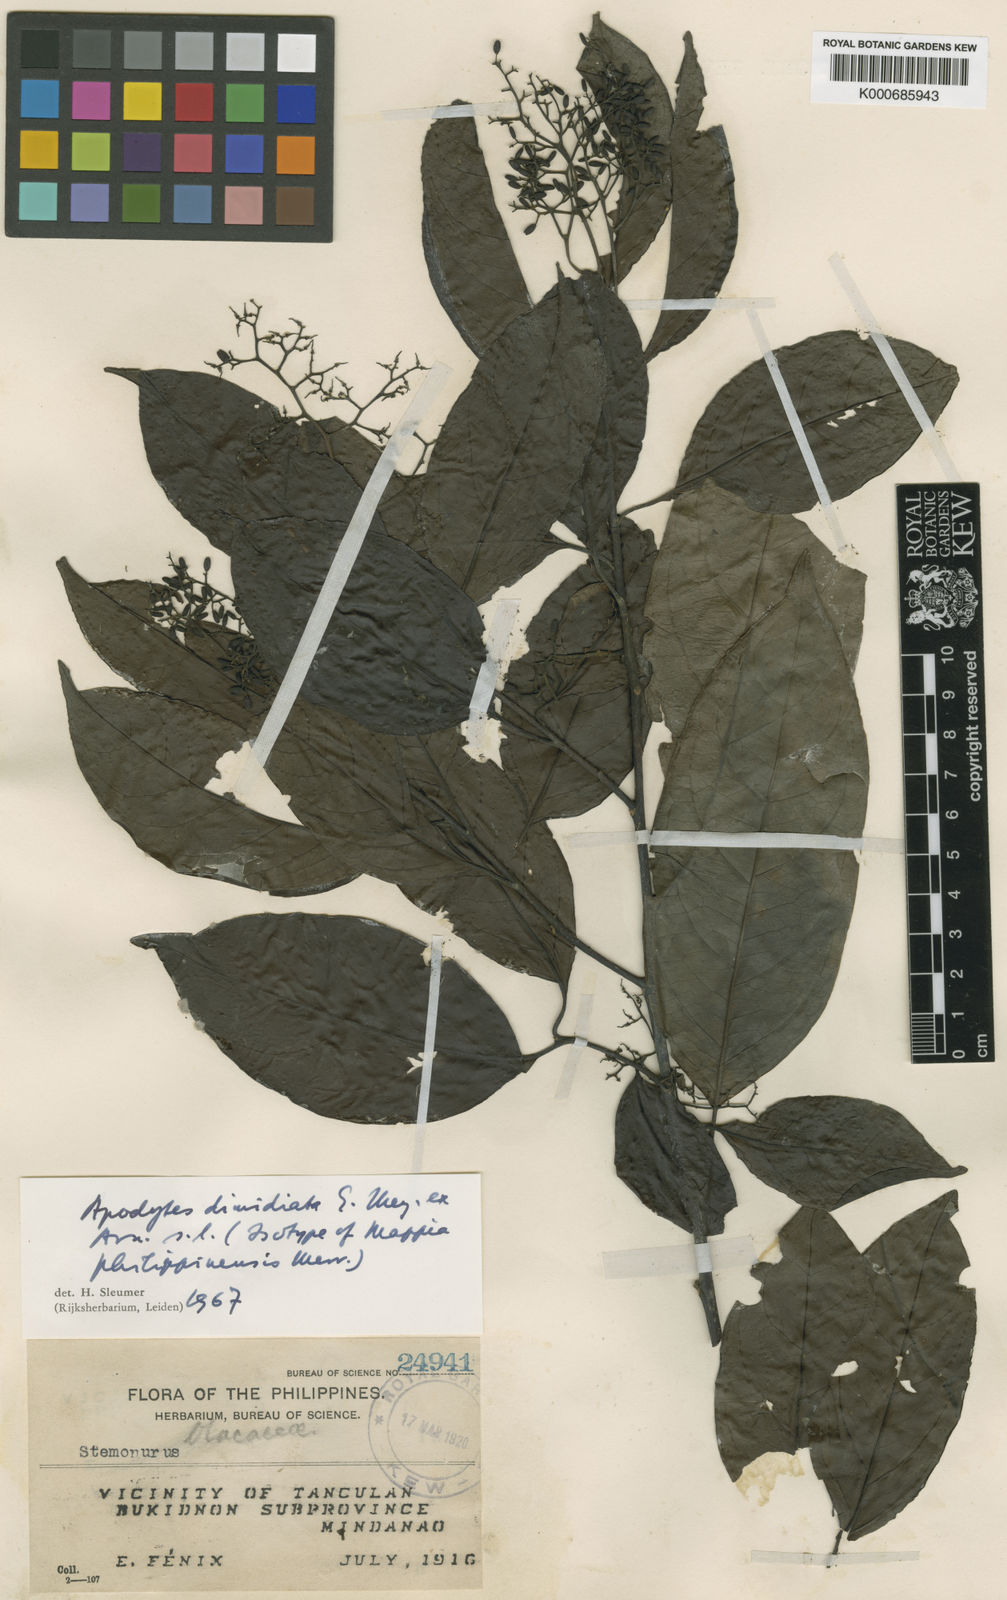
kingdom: Plantae
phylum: Tracheophyta
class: Magnoliopsida
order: Metteniusales
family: Metteniusaceae
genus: Apodytes
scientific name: Apodytes dimidiata
